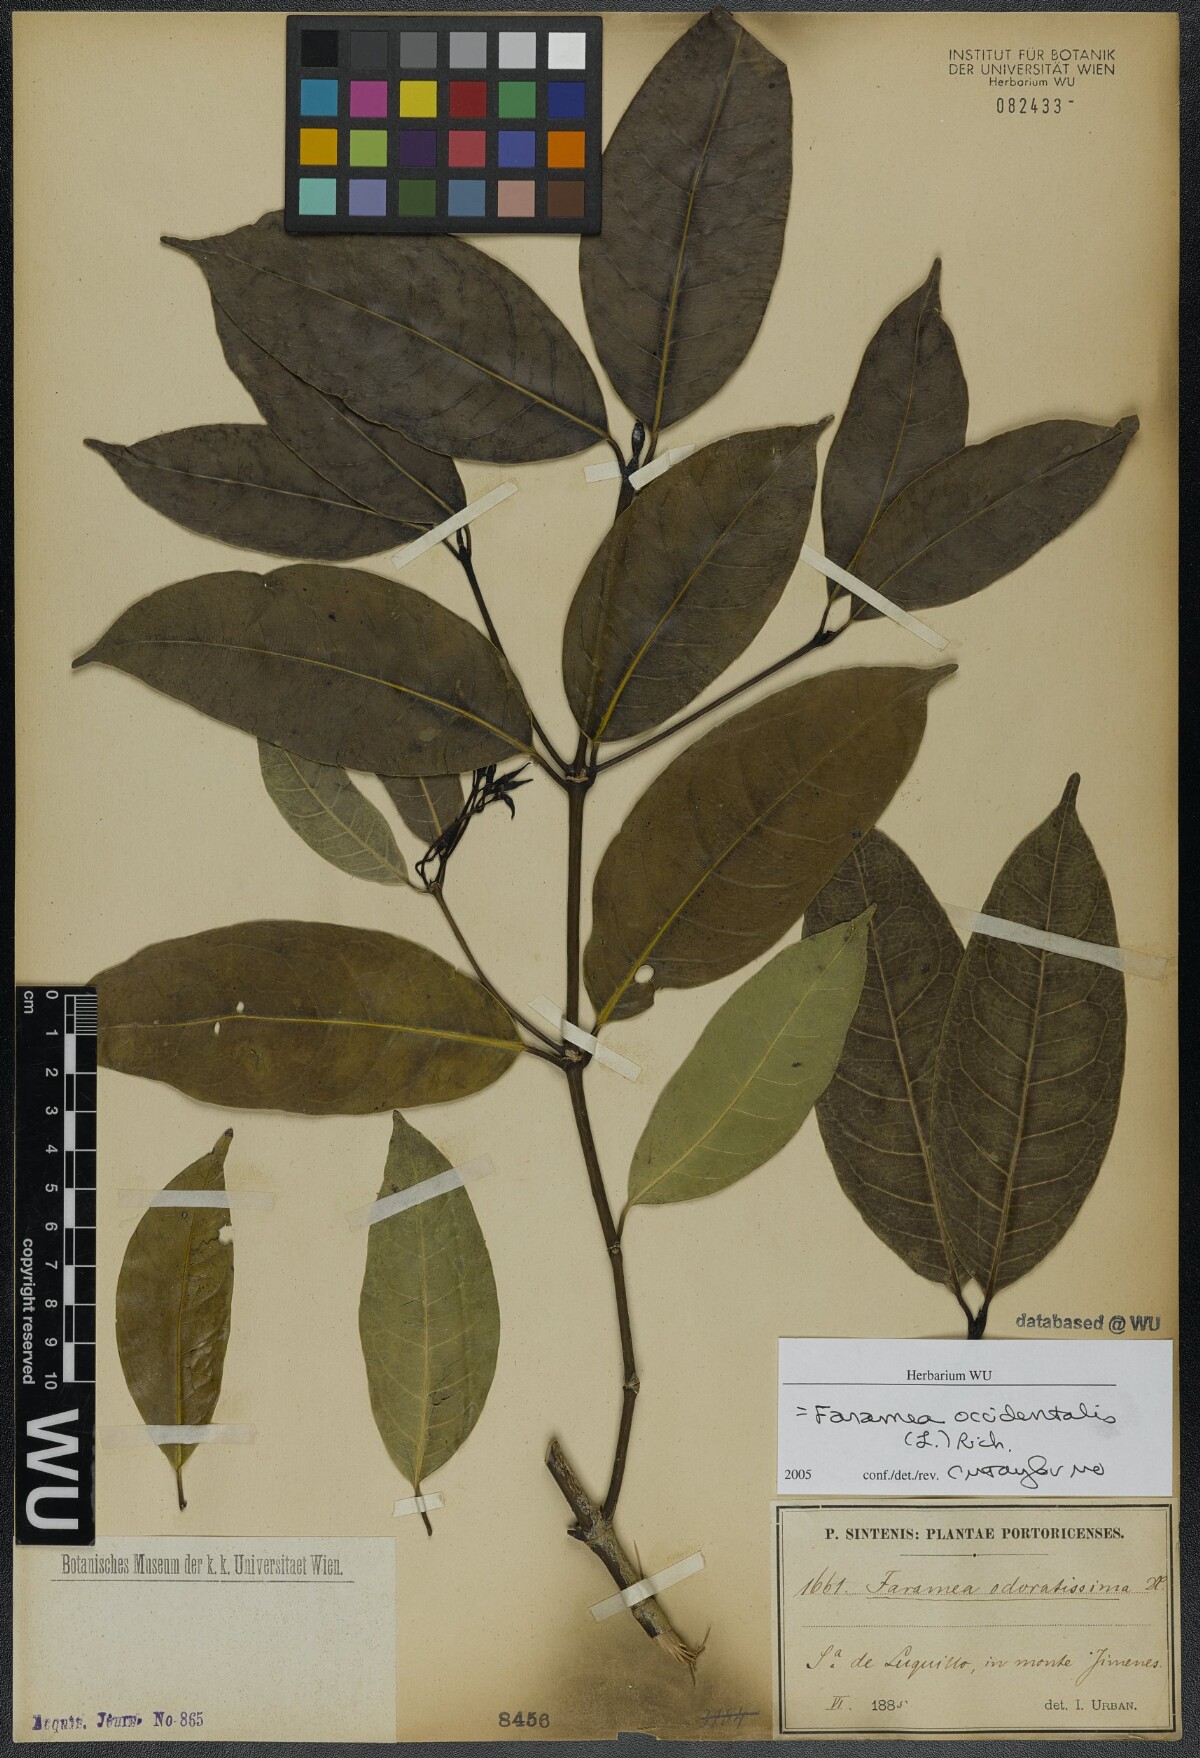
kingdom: Plantae
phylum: Tracheophyta
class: Magnoliopsida
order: Gentianales
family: Rubiaceae
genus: Faramea
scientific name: Faramea occidentalis
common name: False coffee
